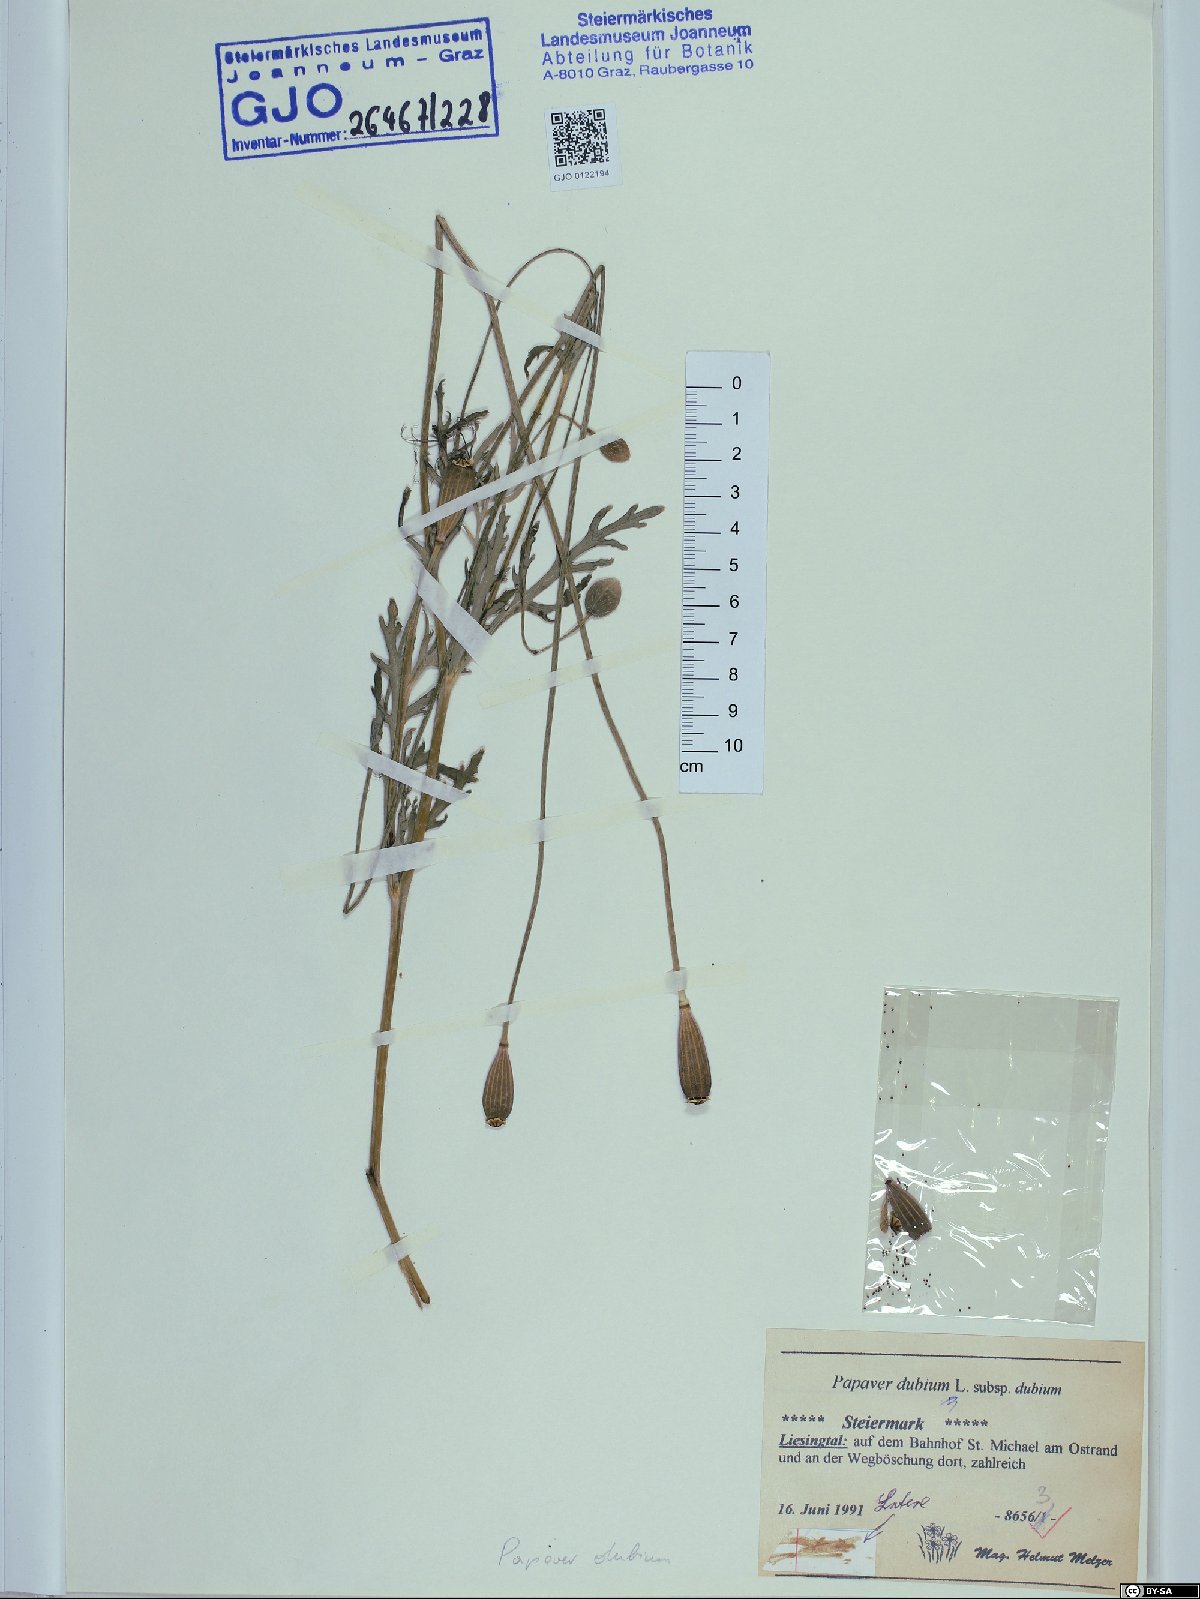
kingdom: Plantae
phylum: Tracheophyta
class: Magnoliopsida
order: Ranunculales
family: Papaveraceae
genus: Papaver
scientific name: Papaver dubium
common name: Long-headed poppy
